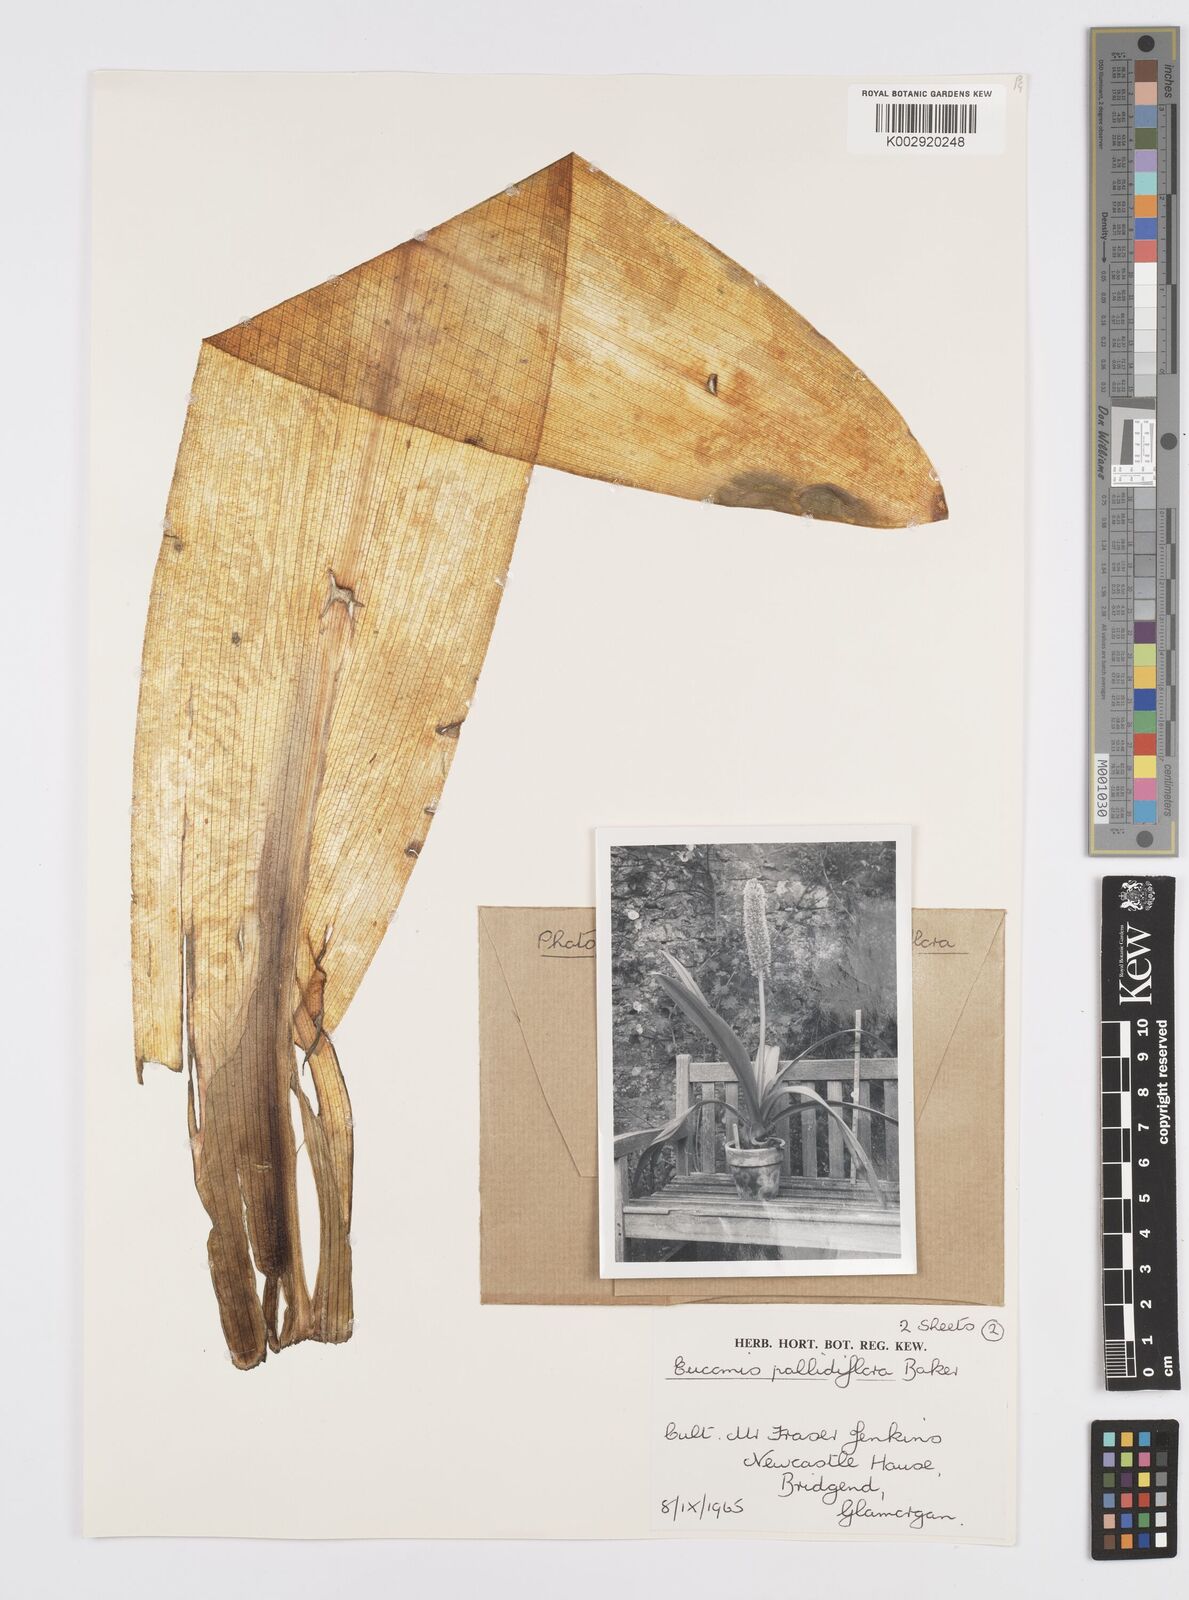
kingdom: Plantae
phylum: Tracheophyta
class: Liliopsida
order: Asparagales
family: Asparagaceae
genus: Eucomis
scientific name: Eucomis pallidiflora
